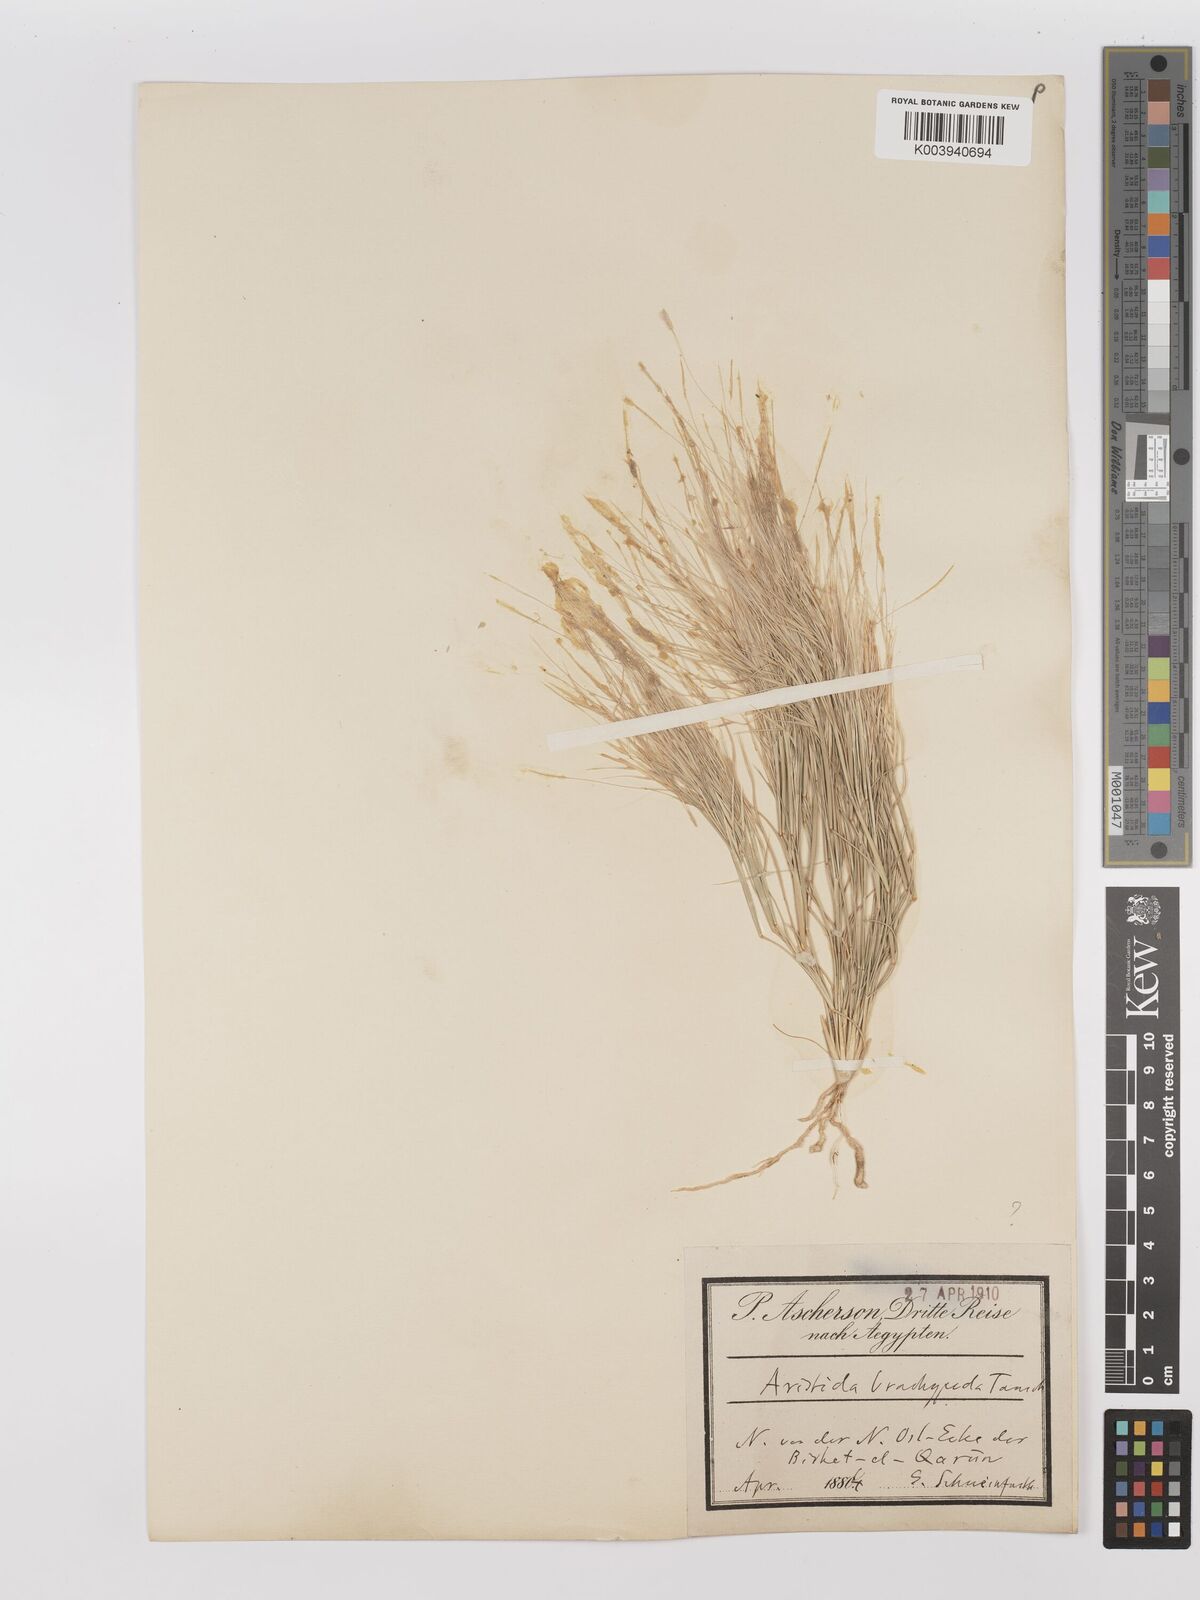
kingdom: Plantae
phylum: Tracheophyta
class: Liliopsida
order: Poales
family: Poaceae
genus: Stipagrostis
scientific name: Stipagrostis plumosa
